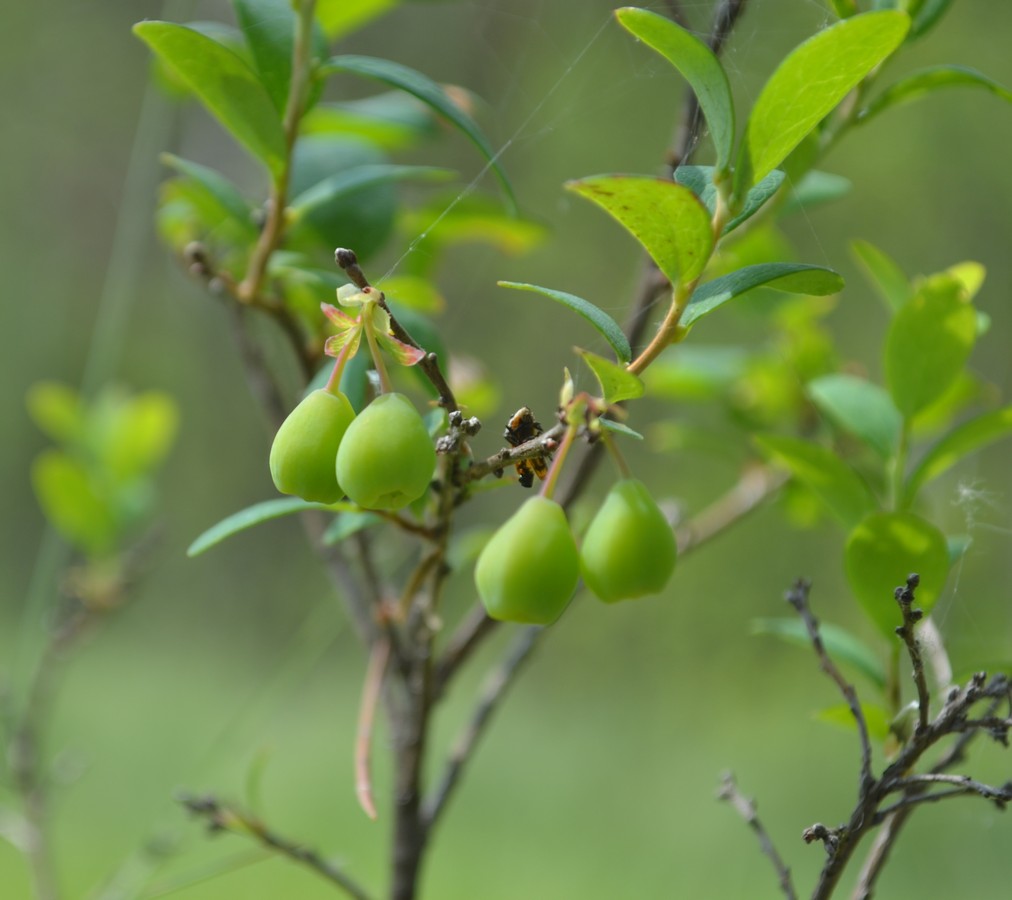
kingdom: Plantae
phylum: Tracheophyta
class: Magnoliopsida
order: Ericales
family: Ericaceae
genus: Vaccinium
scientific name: Vaccinium uliginosum
